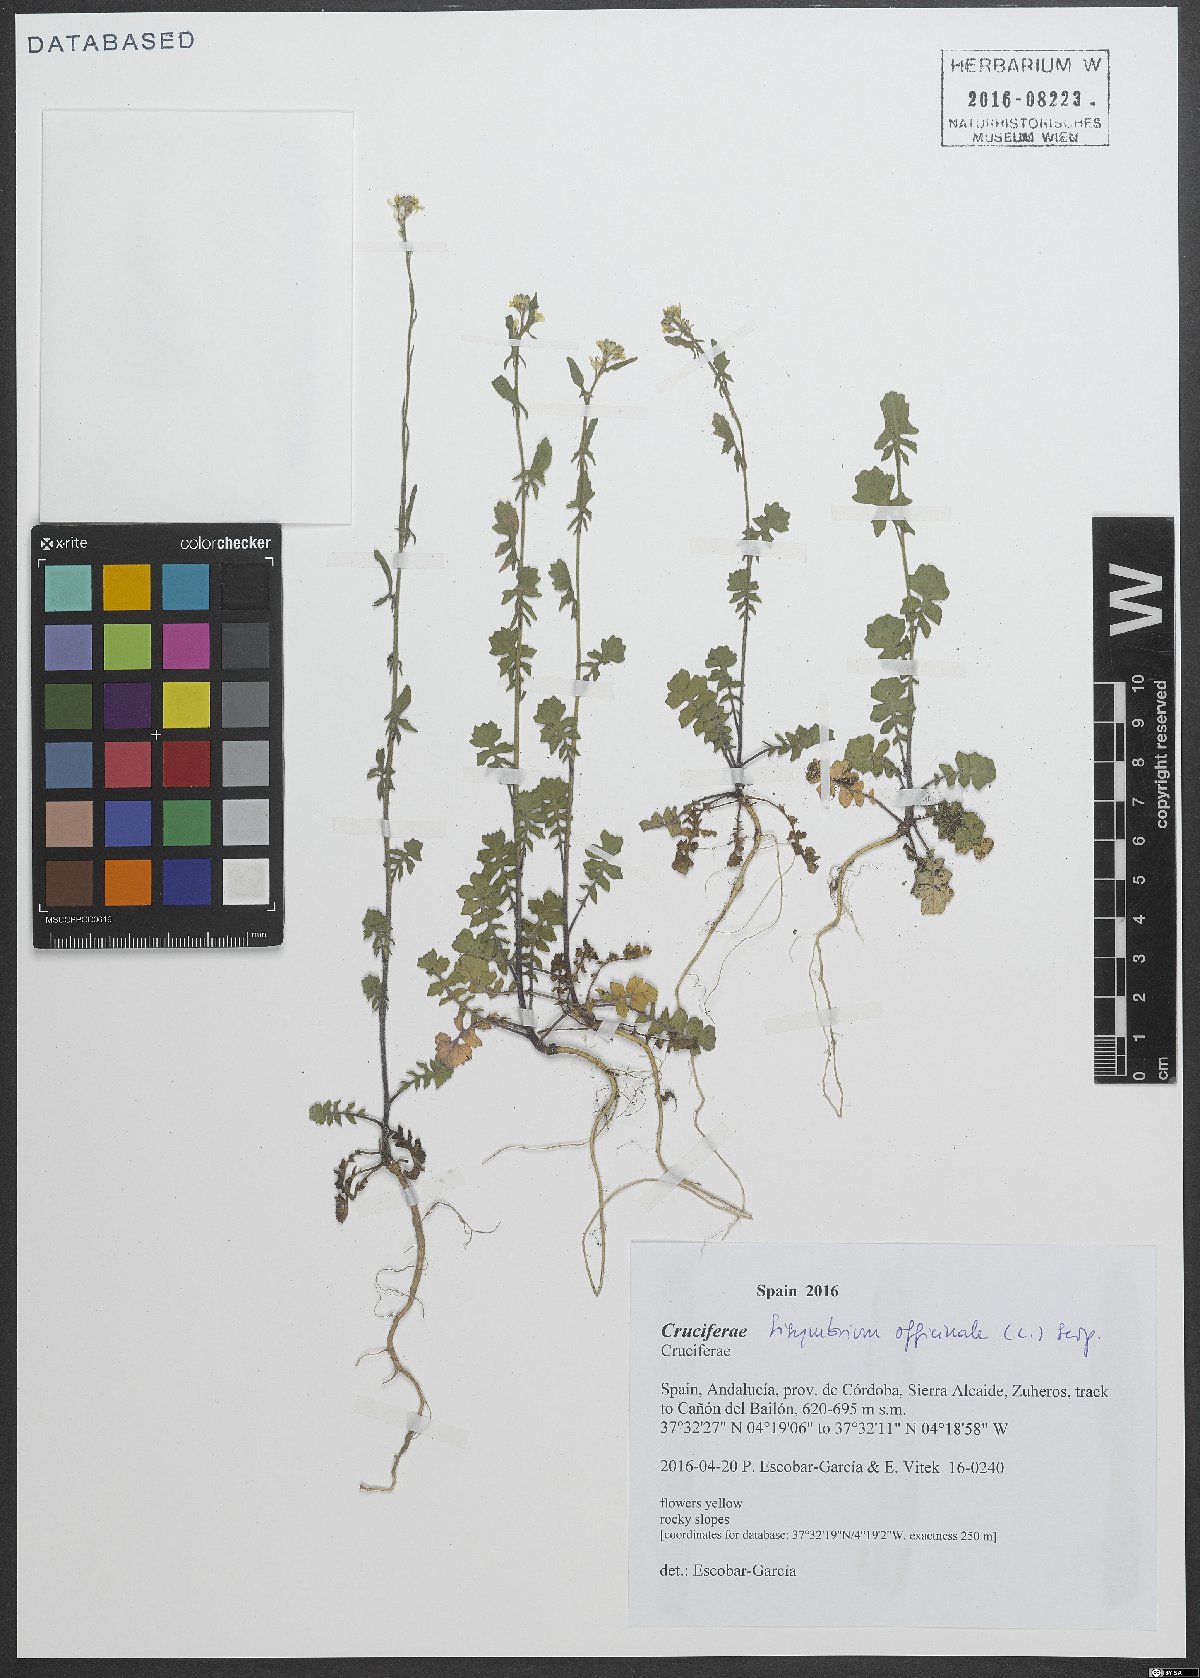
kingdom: Plantae
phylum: Tracheophyta
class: Magnoliopsida
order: Brassicales
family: Brassicaceae
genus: Sisymbrium
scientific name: Sisymbrium officinale
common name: Hedge mustard
